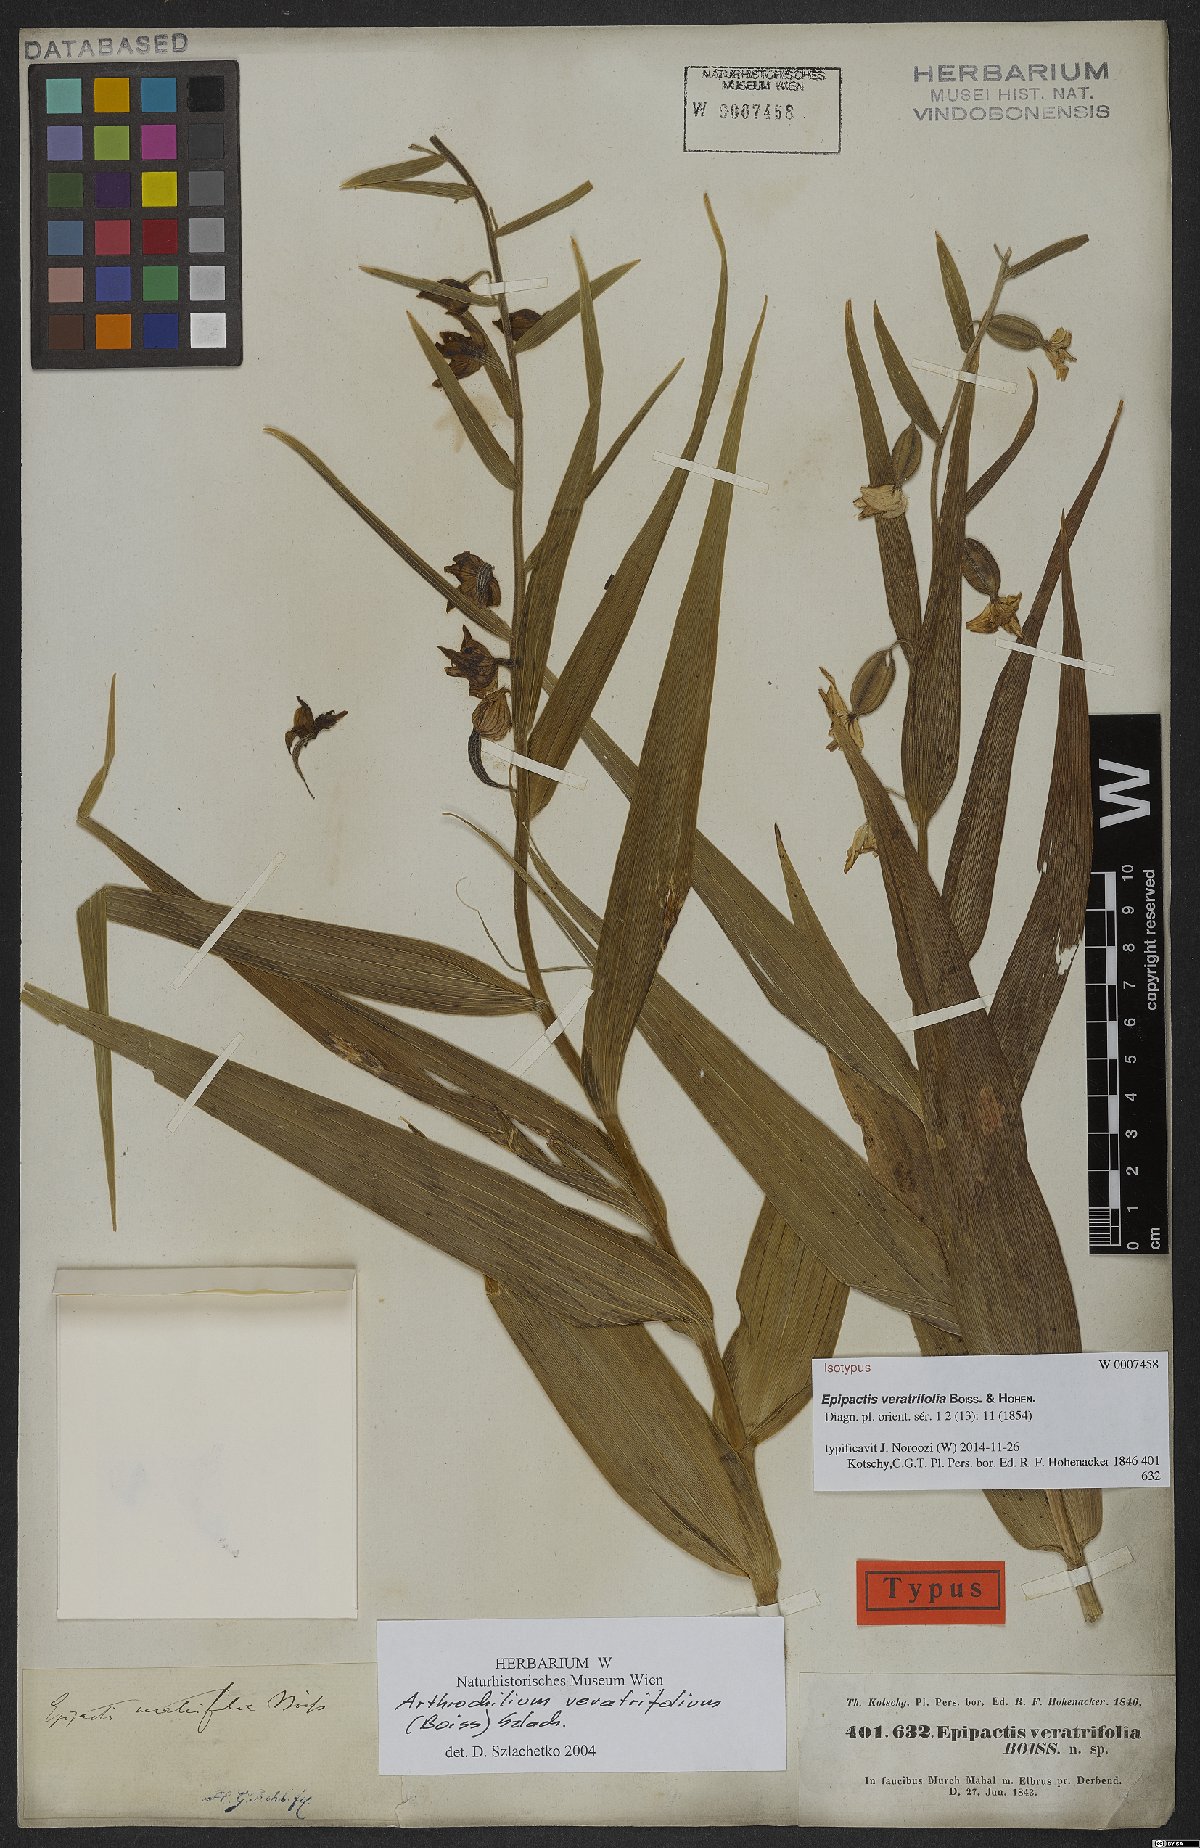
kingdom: Plantae
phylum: Tracheophyta
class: Liliopsida
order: Asparagales
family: Orchidaceae
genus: Epipactis
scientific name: Epipactis veratrifolia
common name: Eastern marsh helleborine
